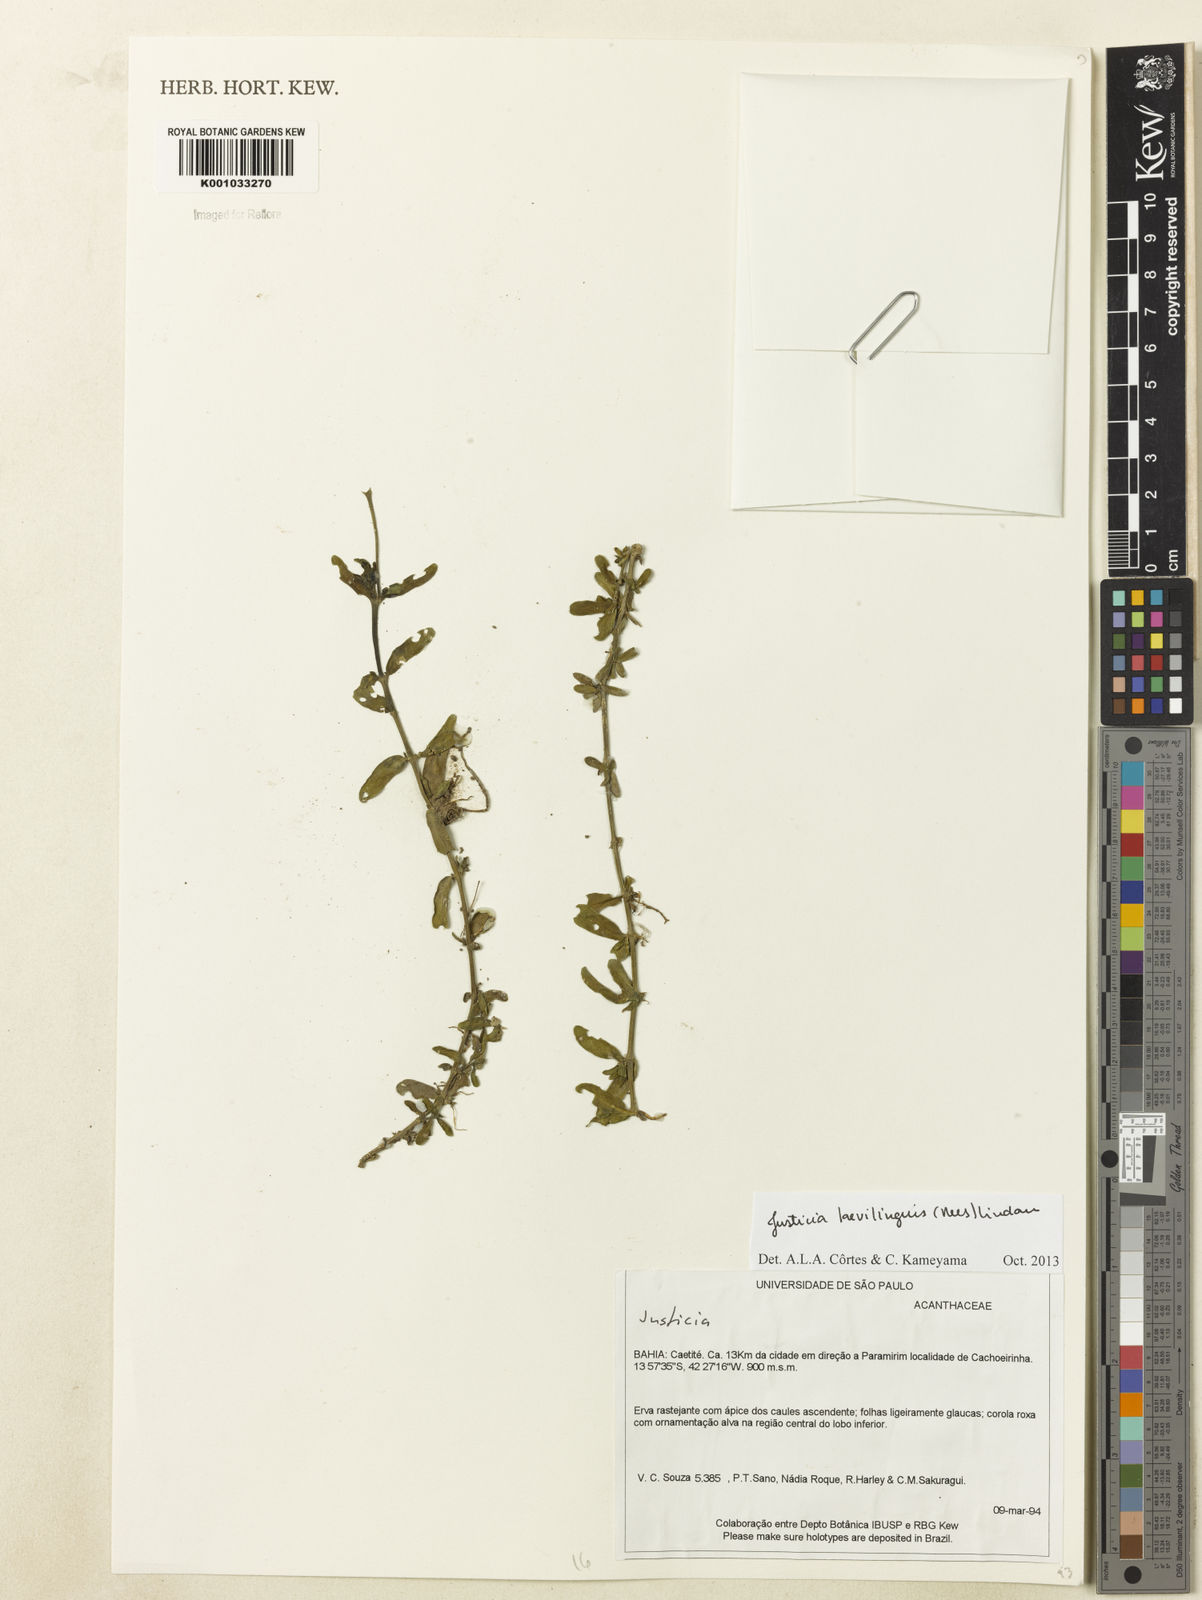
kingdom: Plantae
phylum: Tracheophyta
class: Magnoliopsida
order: Lamiales
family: Acanthaceae
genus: Dianthera
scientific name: Dianthera laevilinguis
